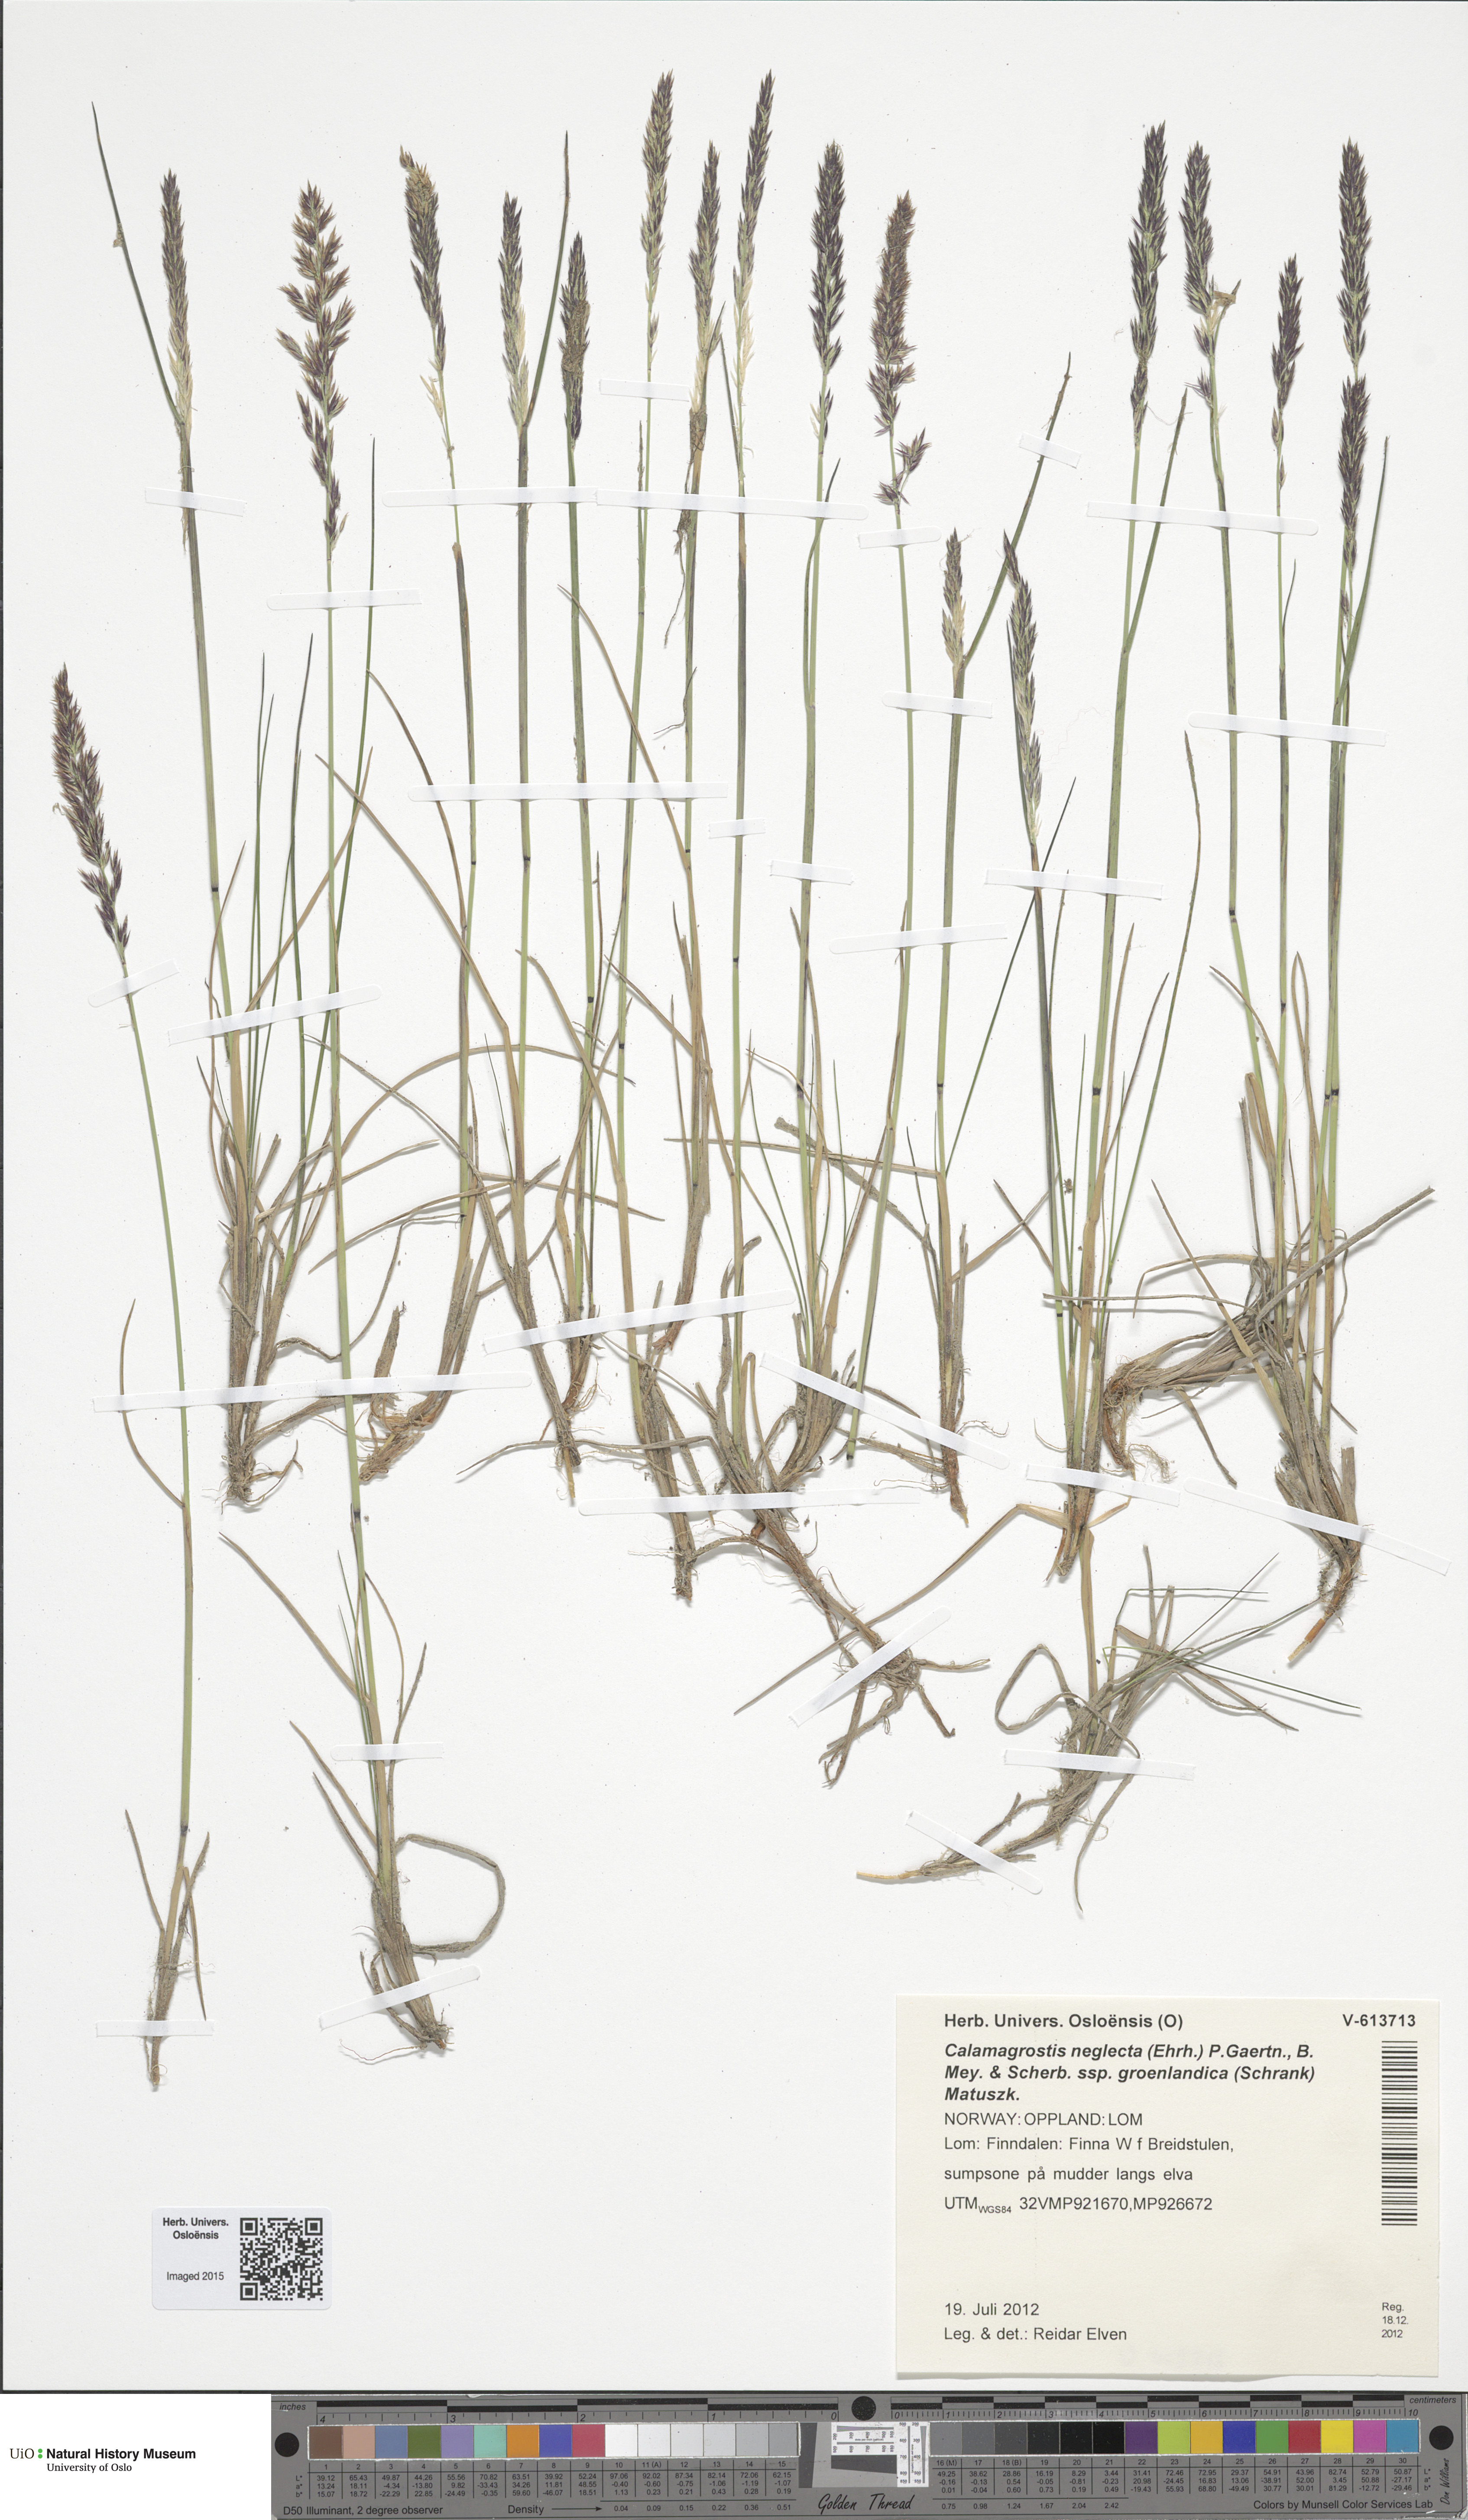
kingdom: Plantae
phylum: Tracheophyta
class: Liliopsida
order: Poales
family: Poaceae
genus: Calamagrostis
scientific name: Calamagrostis stricta
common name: Narrow small-reed
